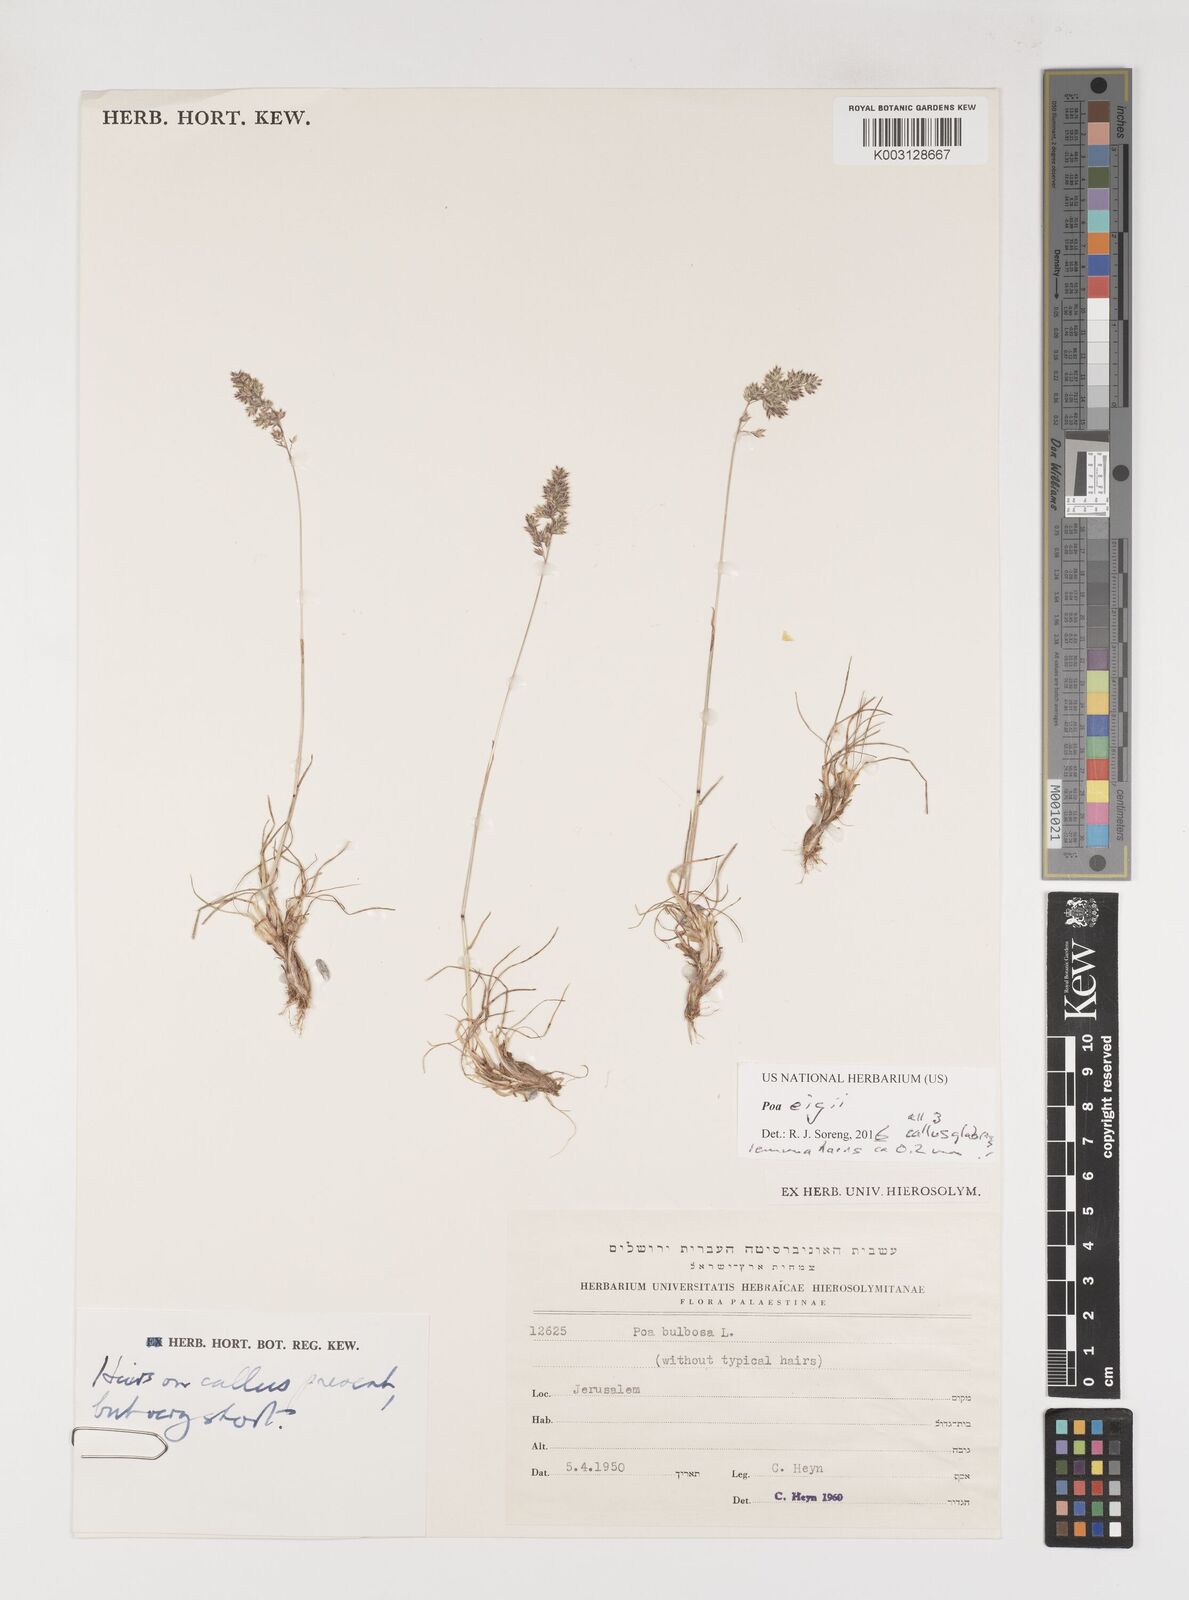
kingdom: Plantae
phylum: Tracheophyta
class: Liliopsida
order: Poales
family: Poaceae
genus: Poa
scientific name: Poa bulbosa
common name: Bulbous bluegrass
